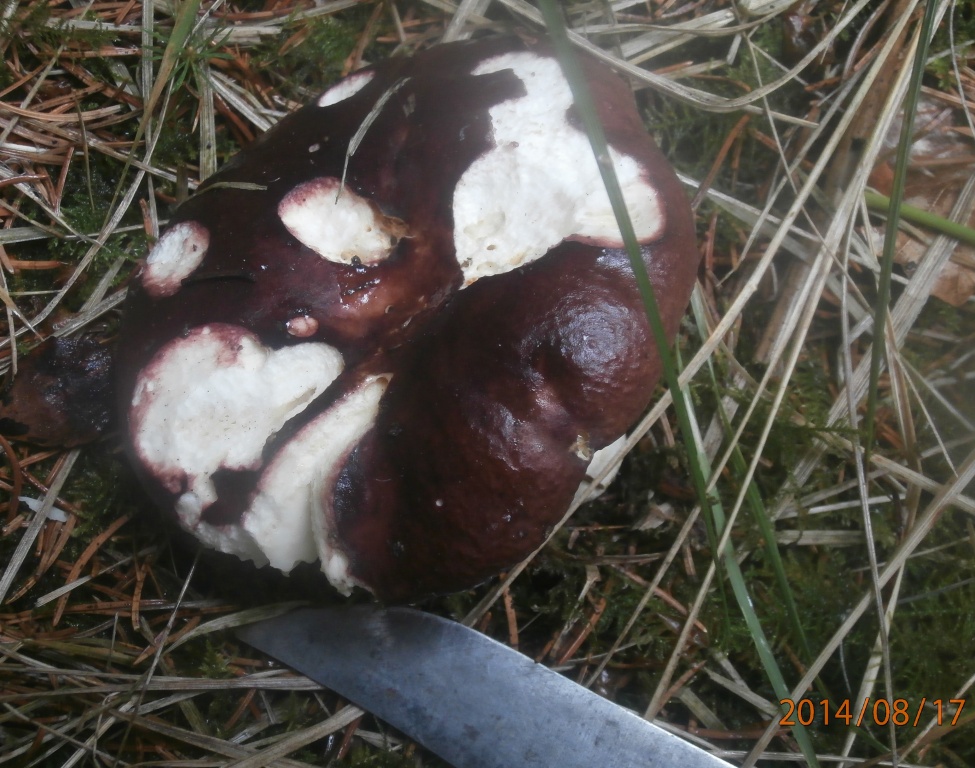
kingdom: Fungi
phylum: Basidiomycota
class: Agaricomycetes
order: Russulales
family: Russulaceae
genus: Russula
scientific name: Russula integra
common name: mandel-skørhat
